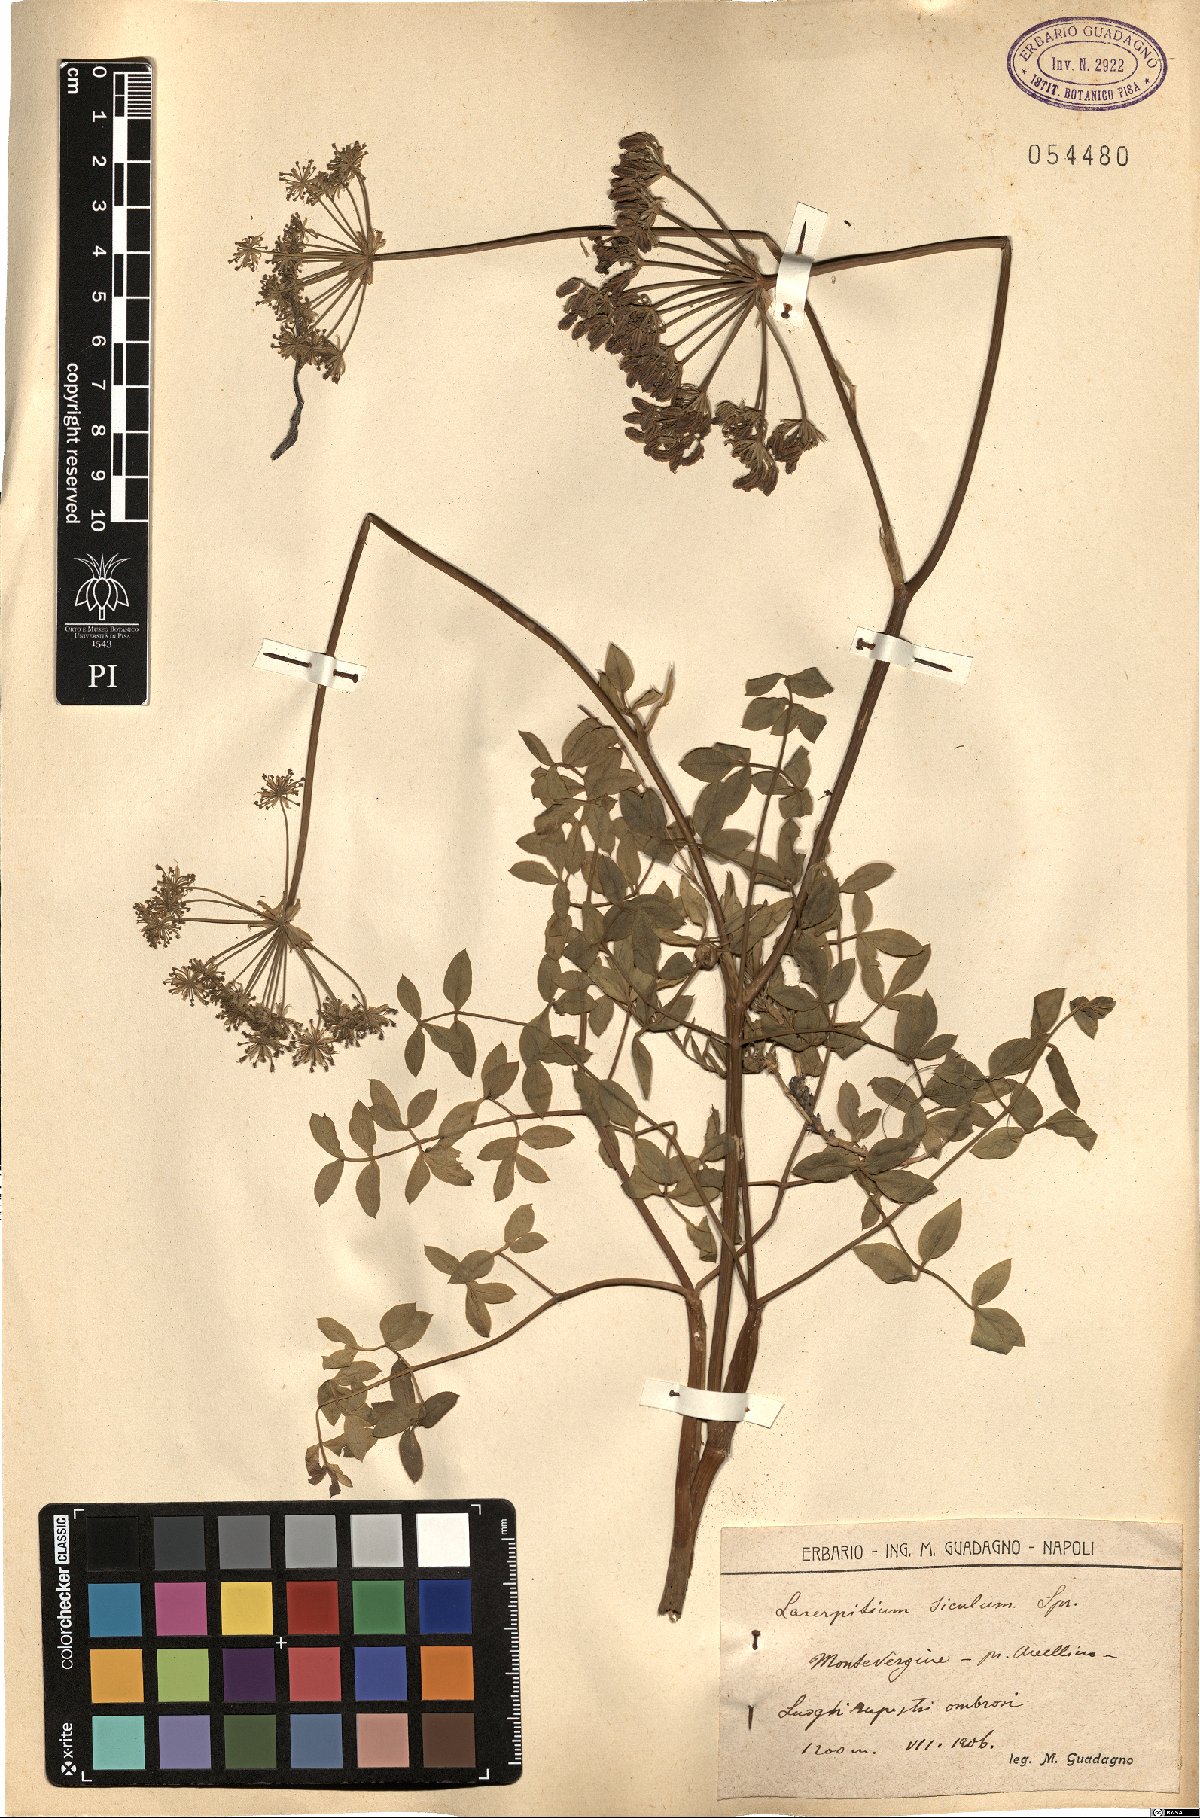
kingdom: Plantae
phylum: Tracheophyta
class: Magnoliopsida
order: Apiales
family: Apiaceae
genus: Siler
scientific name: Siler montanum
